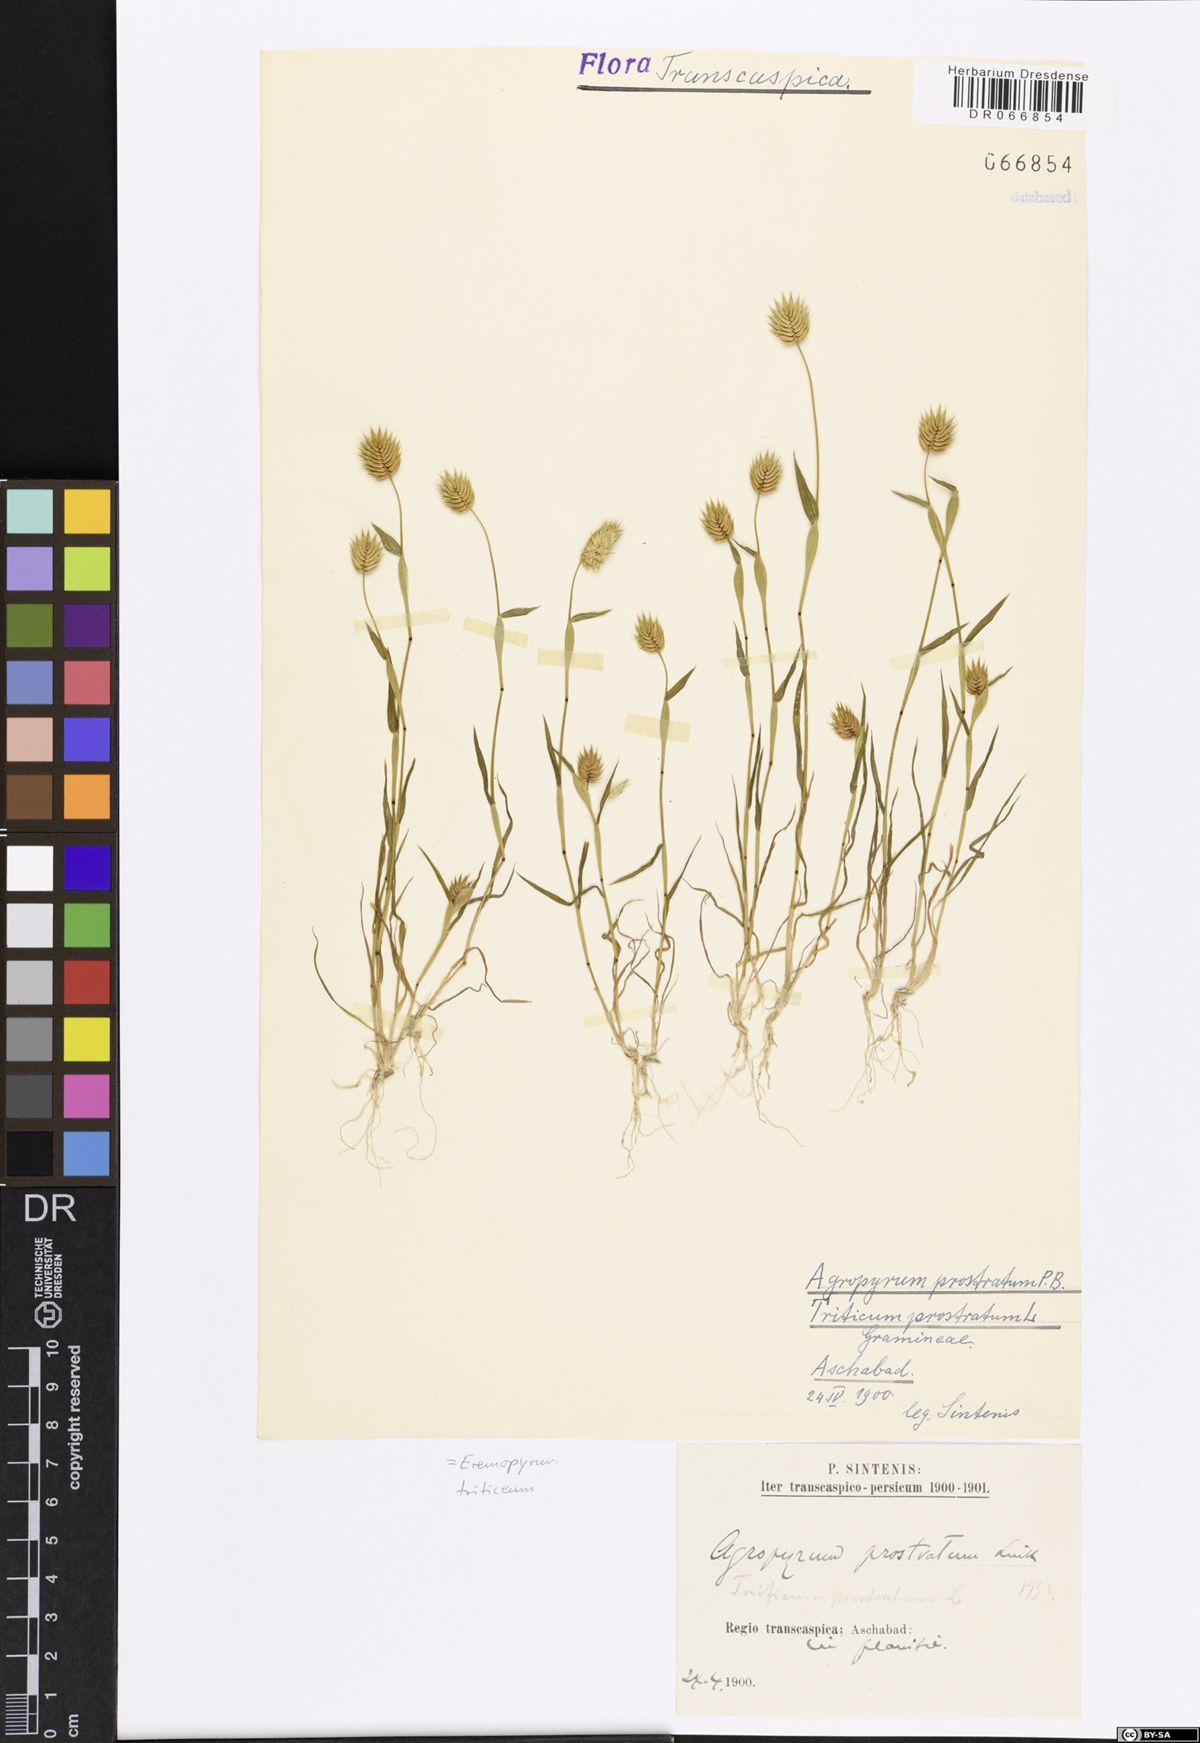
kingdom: Plantae
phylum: Tracheophyta
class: Liliopsida
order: Poales
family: Poaceae
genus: Eremopyrum
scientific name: Eremopyrum triticeum
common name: Annual wheatgrass
